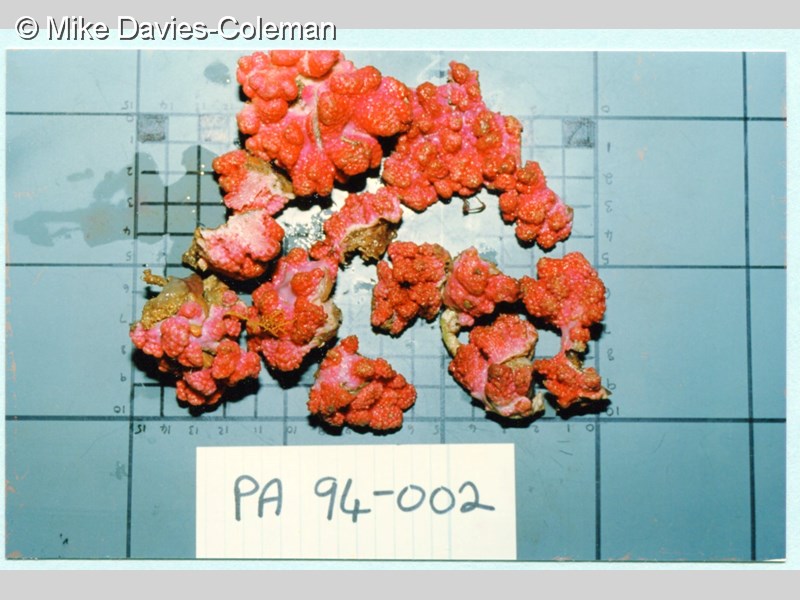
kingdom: Animalia
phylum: Cnidaria
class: Anthozoa
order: Malacalcyonacea
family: Alcyoniidae
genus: Alcyonium
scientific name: Alcyonium fauri
